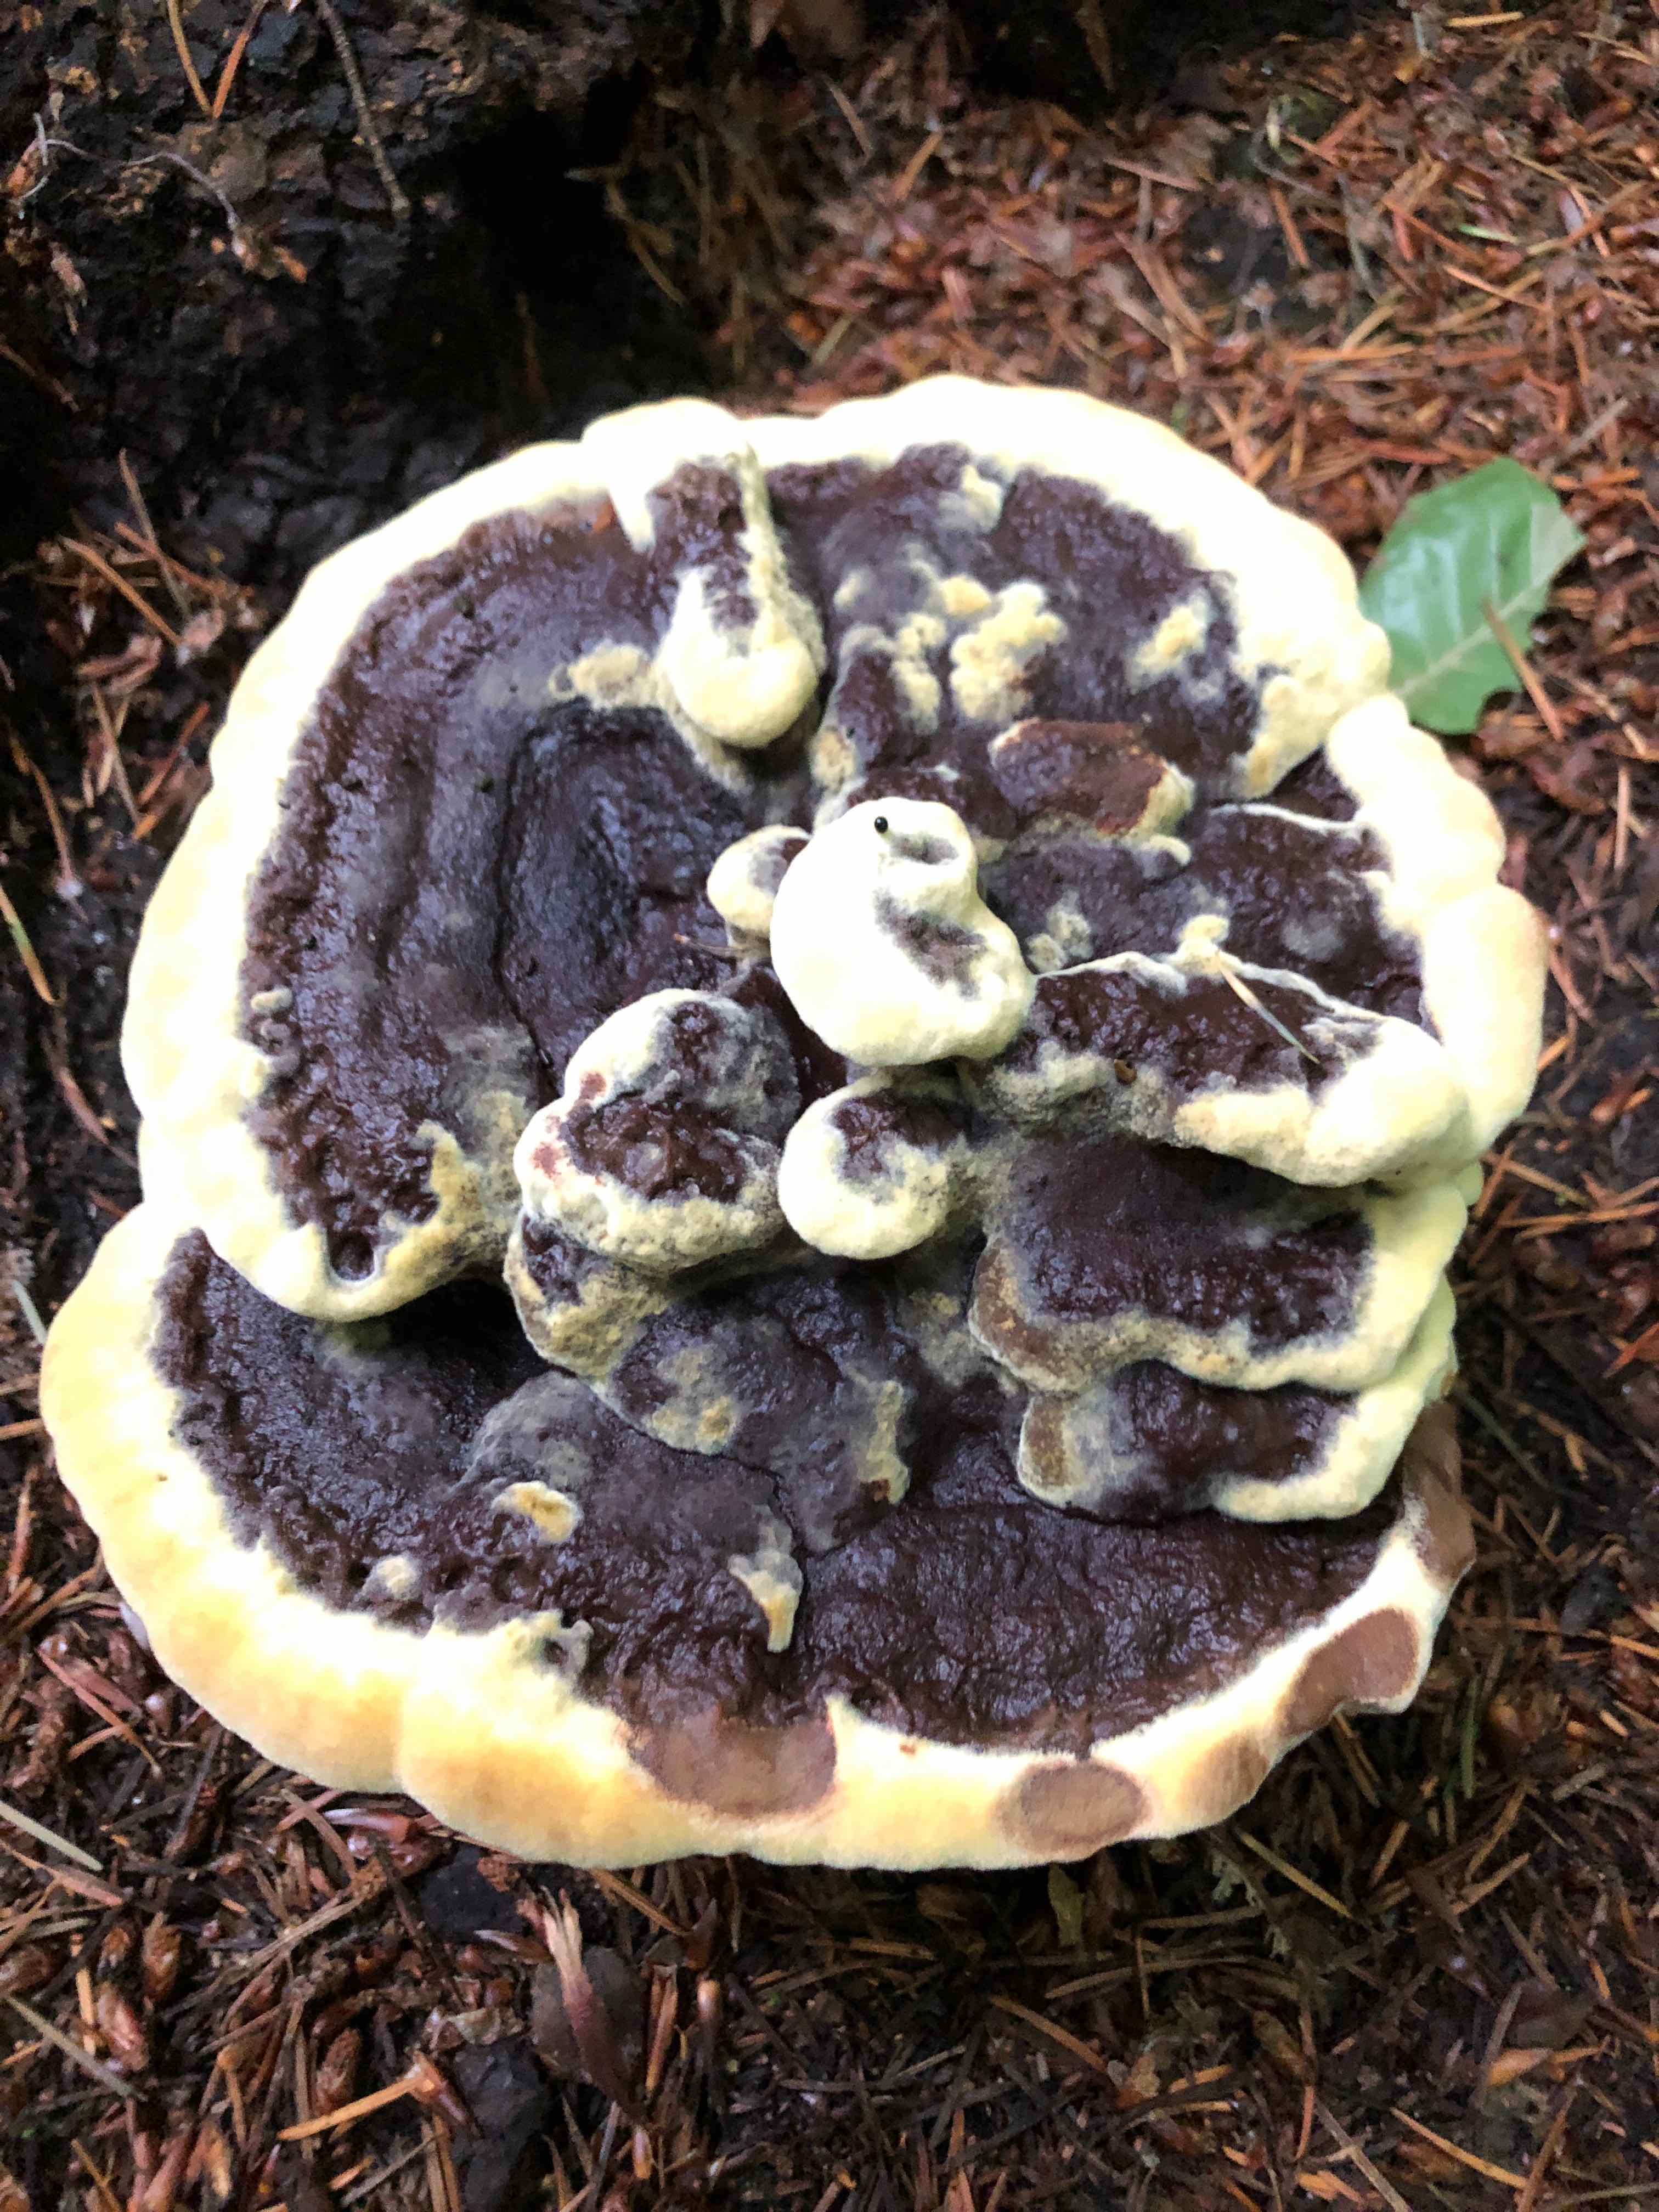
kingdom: Fungi
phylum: Basidiomycota
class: Agaricomycetes
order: Polyporales
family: Laetiporaceae
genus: Phaeolus
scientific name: Phaeolus schweinitzii
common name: brunporesvamp
